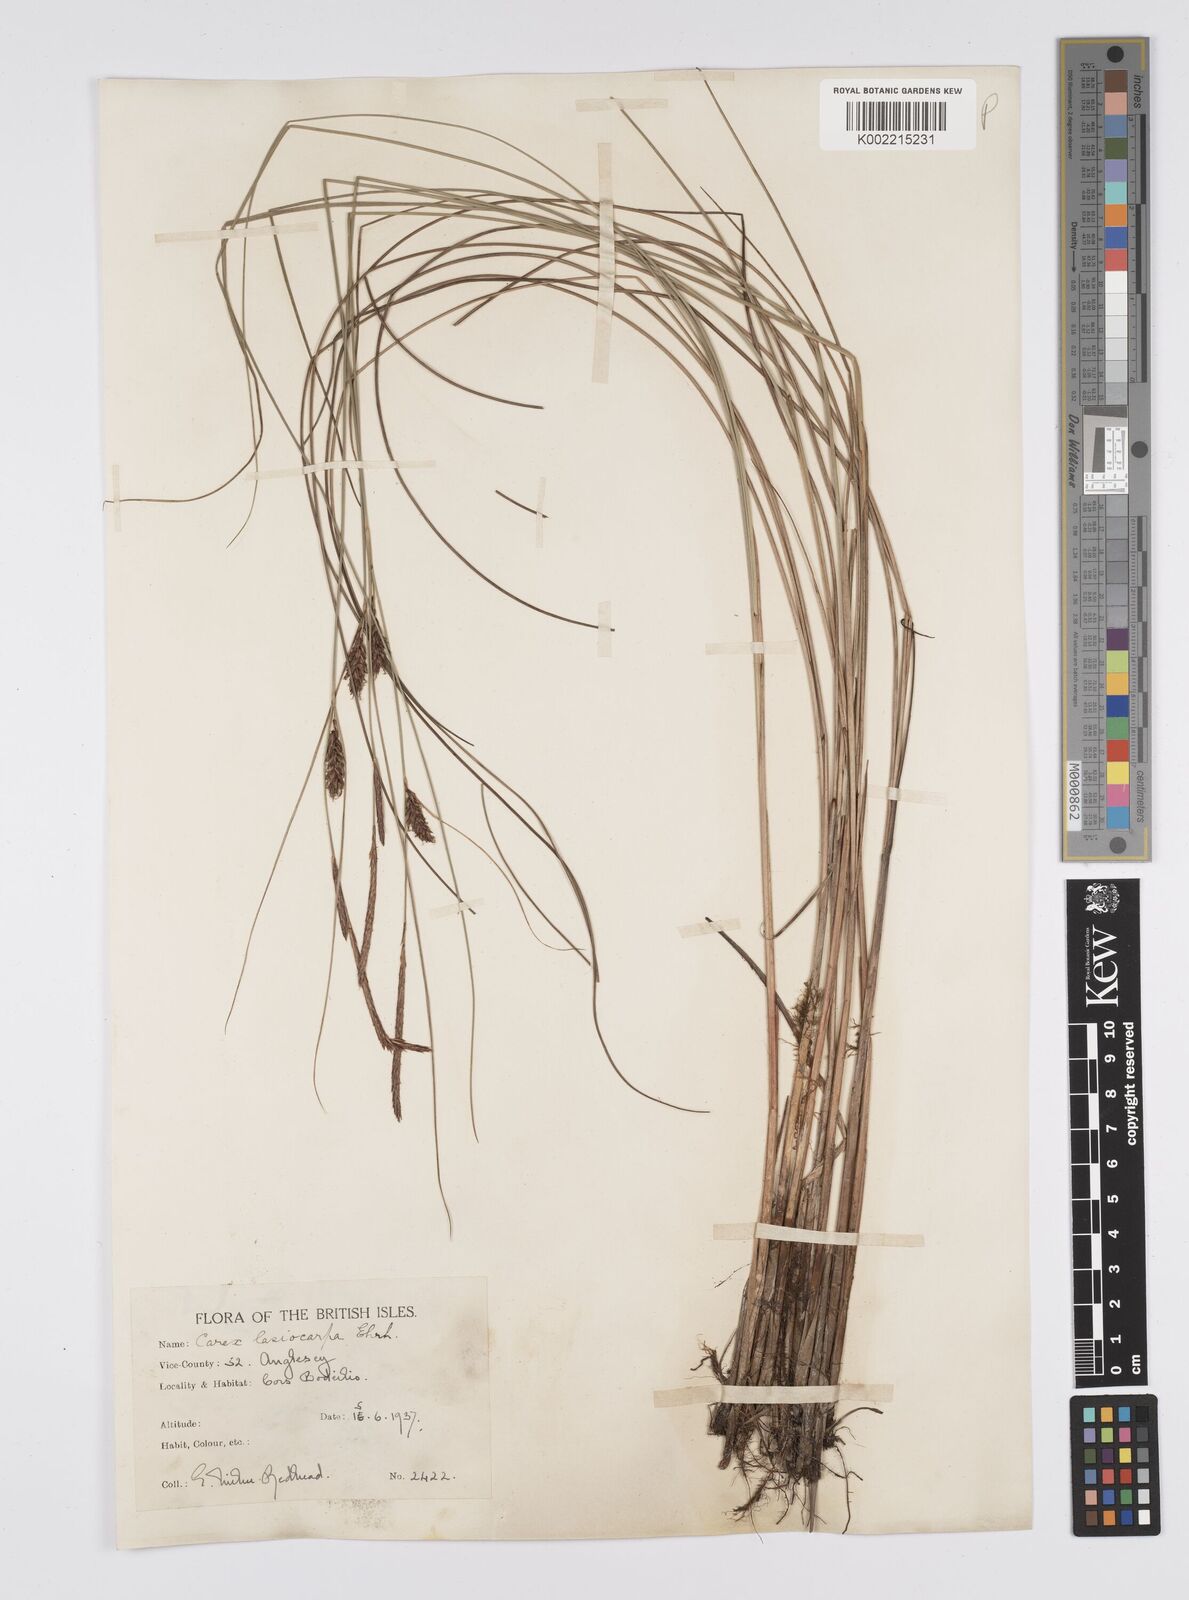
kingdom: Plantae
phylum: Tracheophyta
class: Liliopsida
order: Poales
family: Cyperaceae
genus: Carex
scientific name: Carex lasiocarpa
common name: Slender sedge
